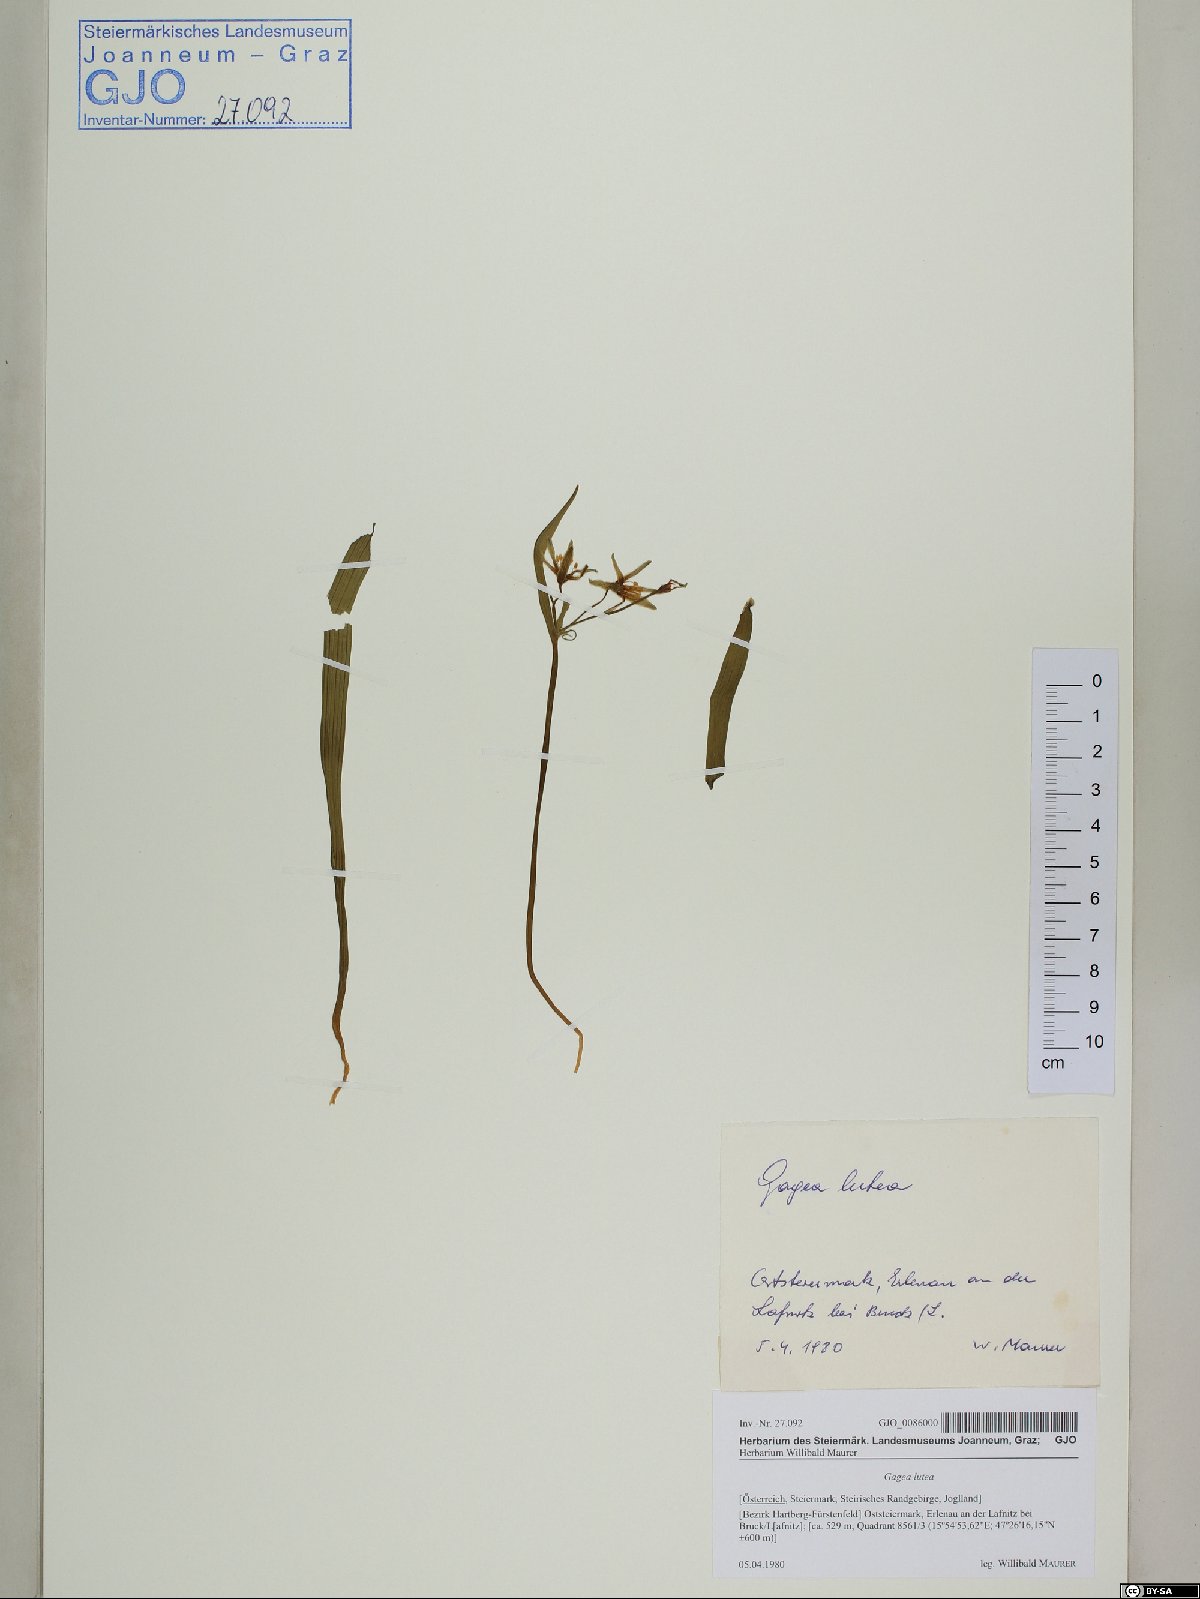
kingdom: Plantae
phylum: Tracheophyta
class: Liliopsida
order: Liliales
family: Liliaceae
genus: Gagea
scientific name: Gagea lutea
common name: Yellow star-of-bethlehem
